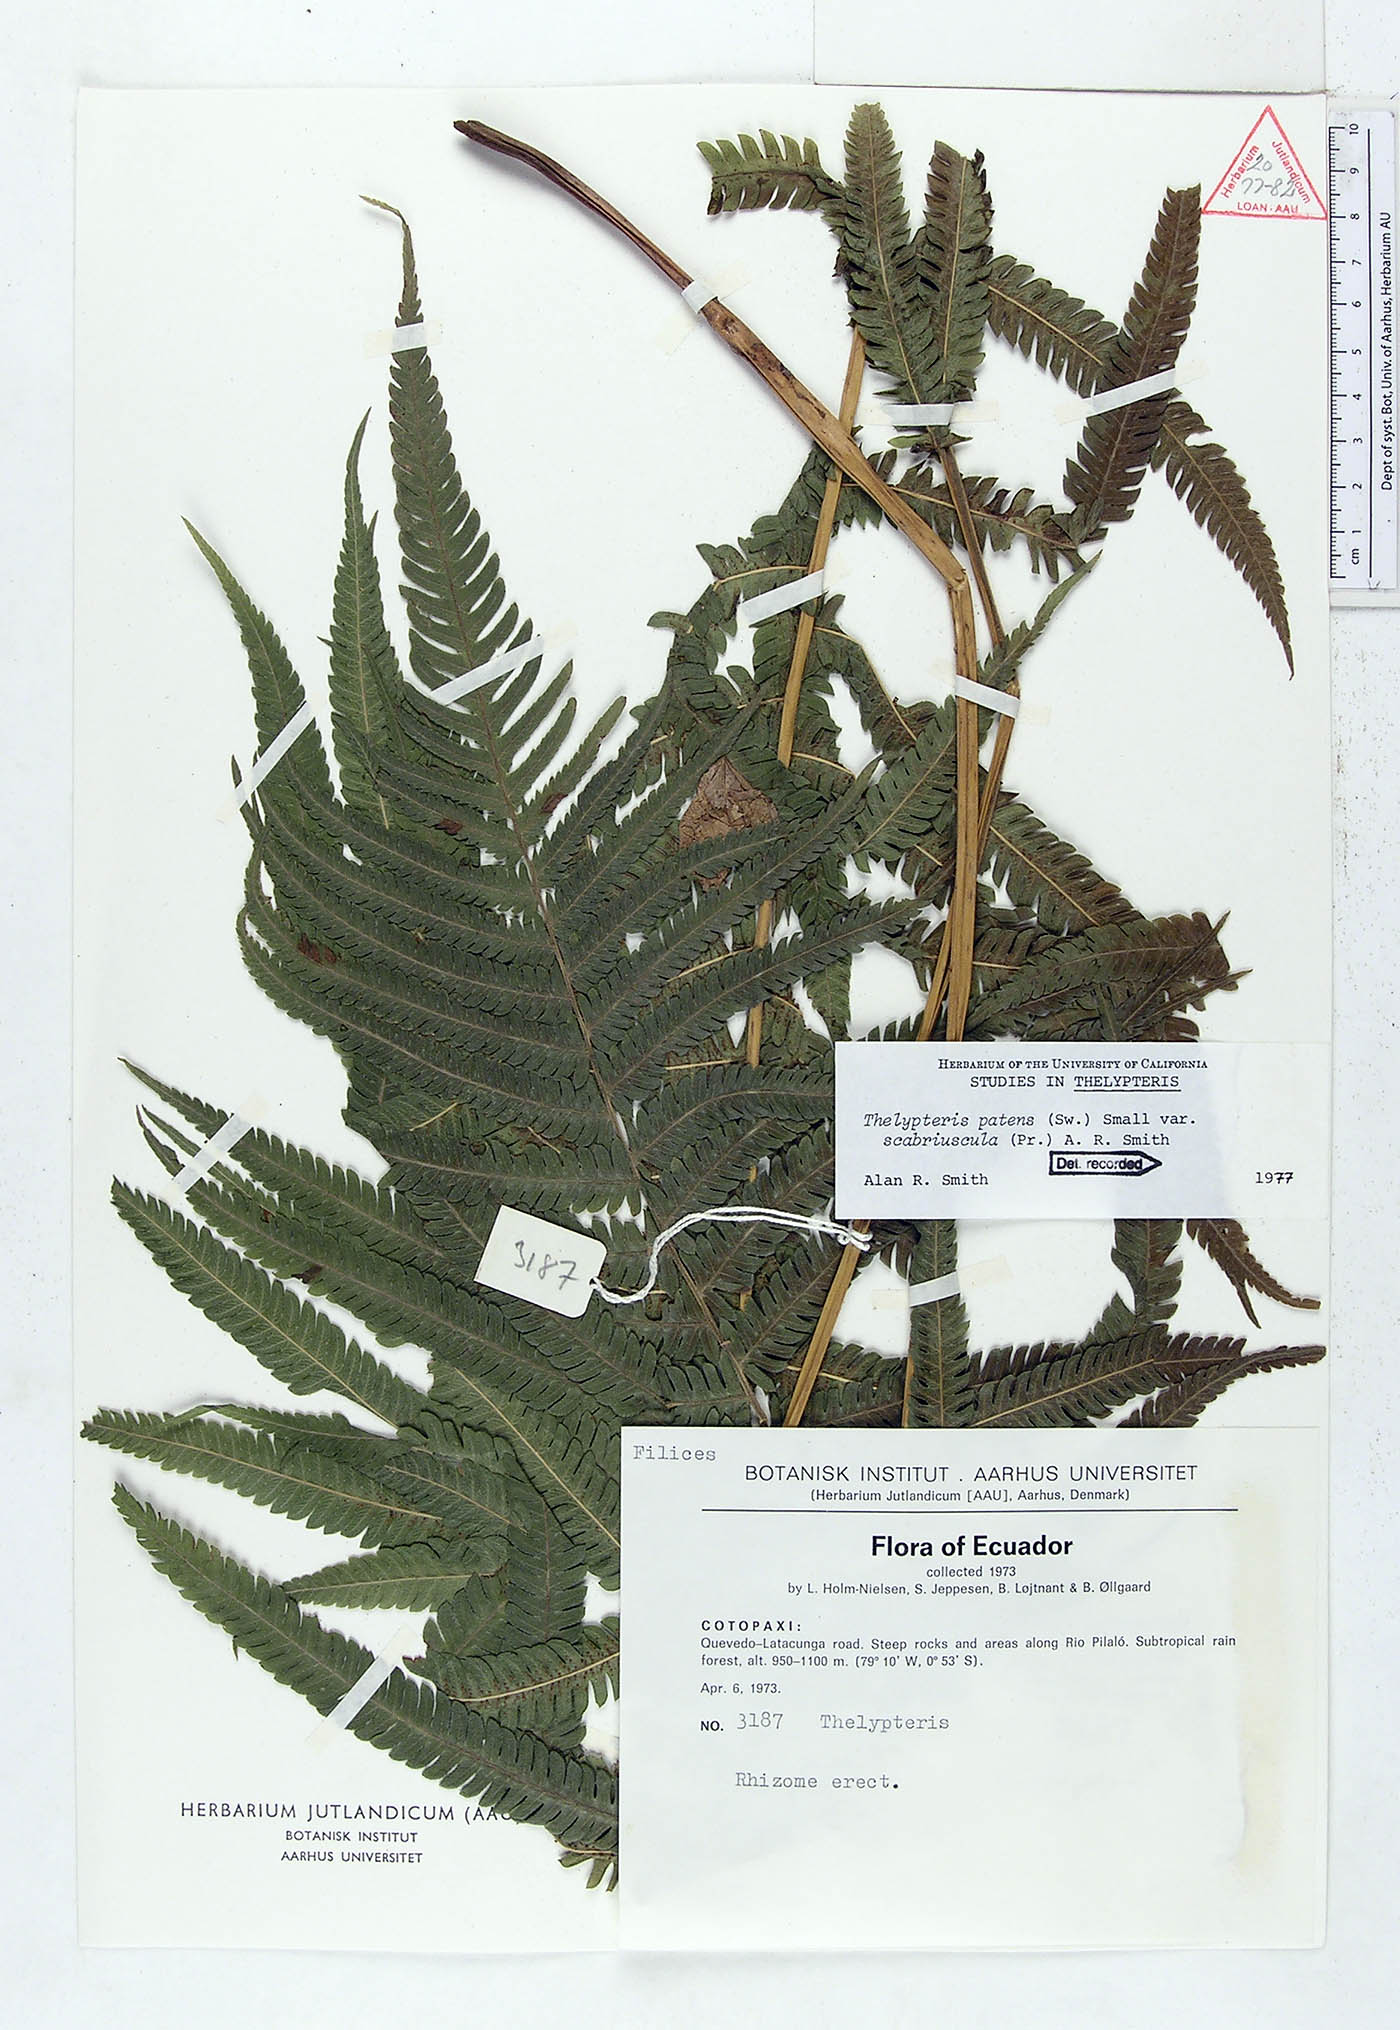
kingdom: Plantae
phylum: Tracheophyta
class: Polypodiopsida
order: Polypodiales
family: Thelypteridaceae
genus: Pelazoneuron
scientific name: Pelazoneuron patens
